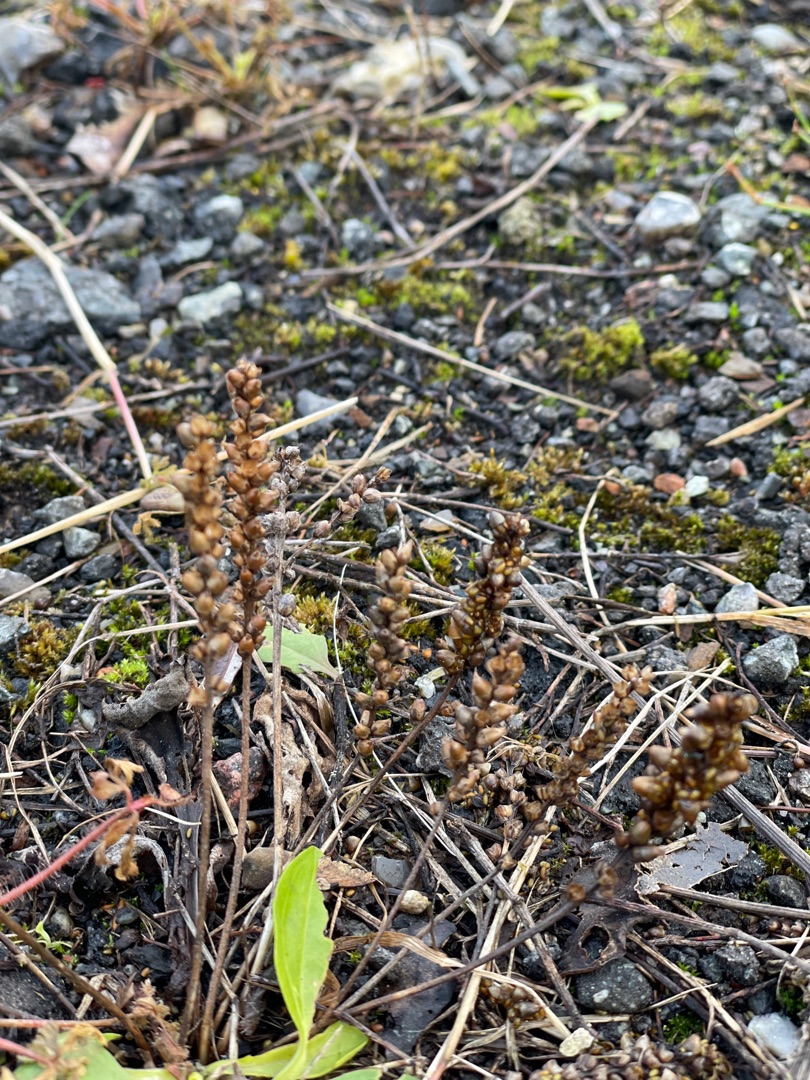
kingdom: Plantae
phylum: Tracheophyta
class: Magnoliopsida
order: Lamiales
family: Plantaginaceae
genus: Plantago
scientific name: Plantago major
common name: Glat vejbred
